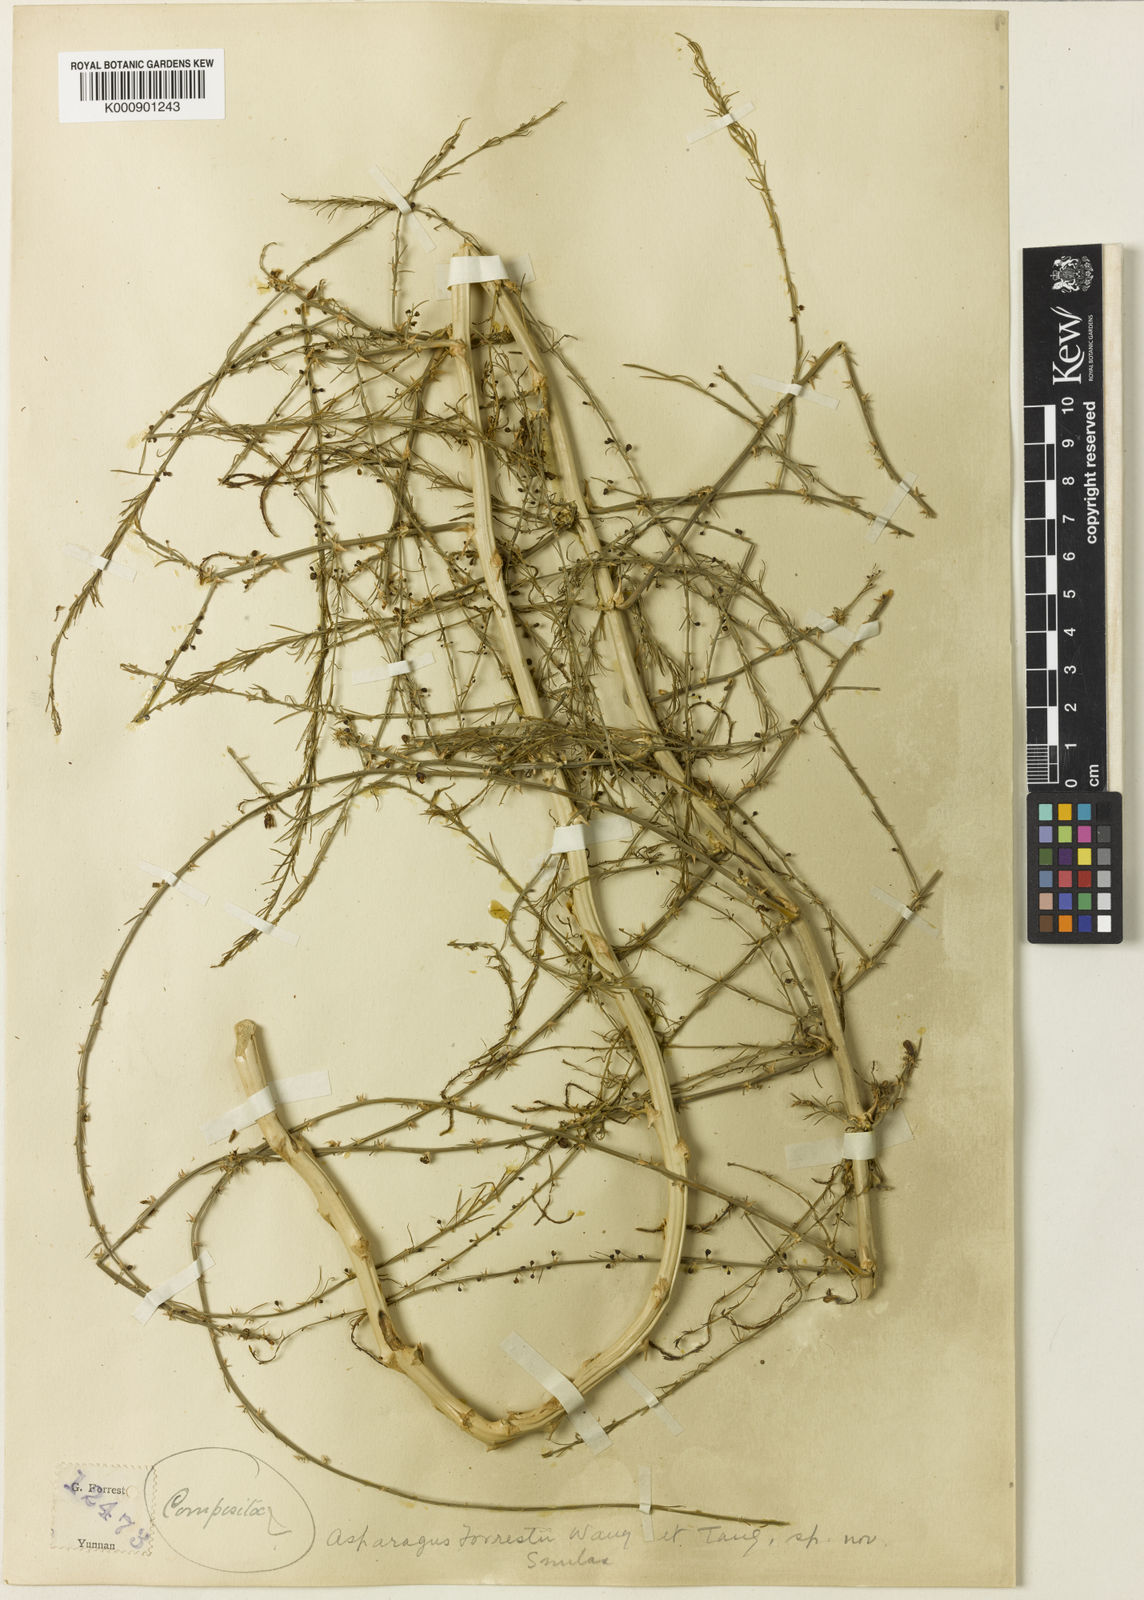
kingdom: Plantae
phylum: Tracheophyta
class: Liliopsida
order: Asparagales
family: Asparagaceae
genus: Asparagus
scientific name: Asparagus
